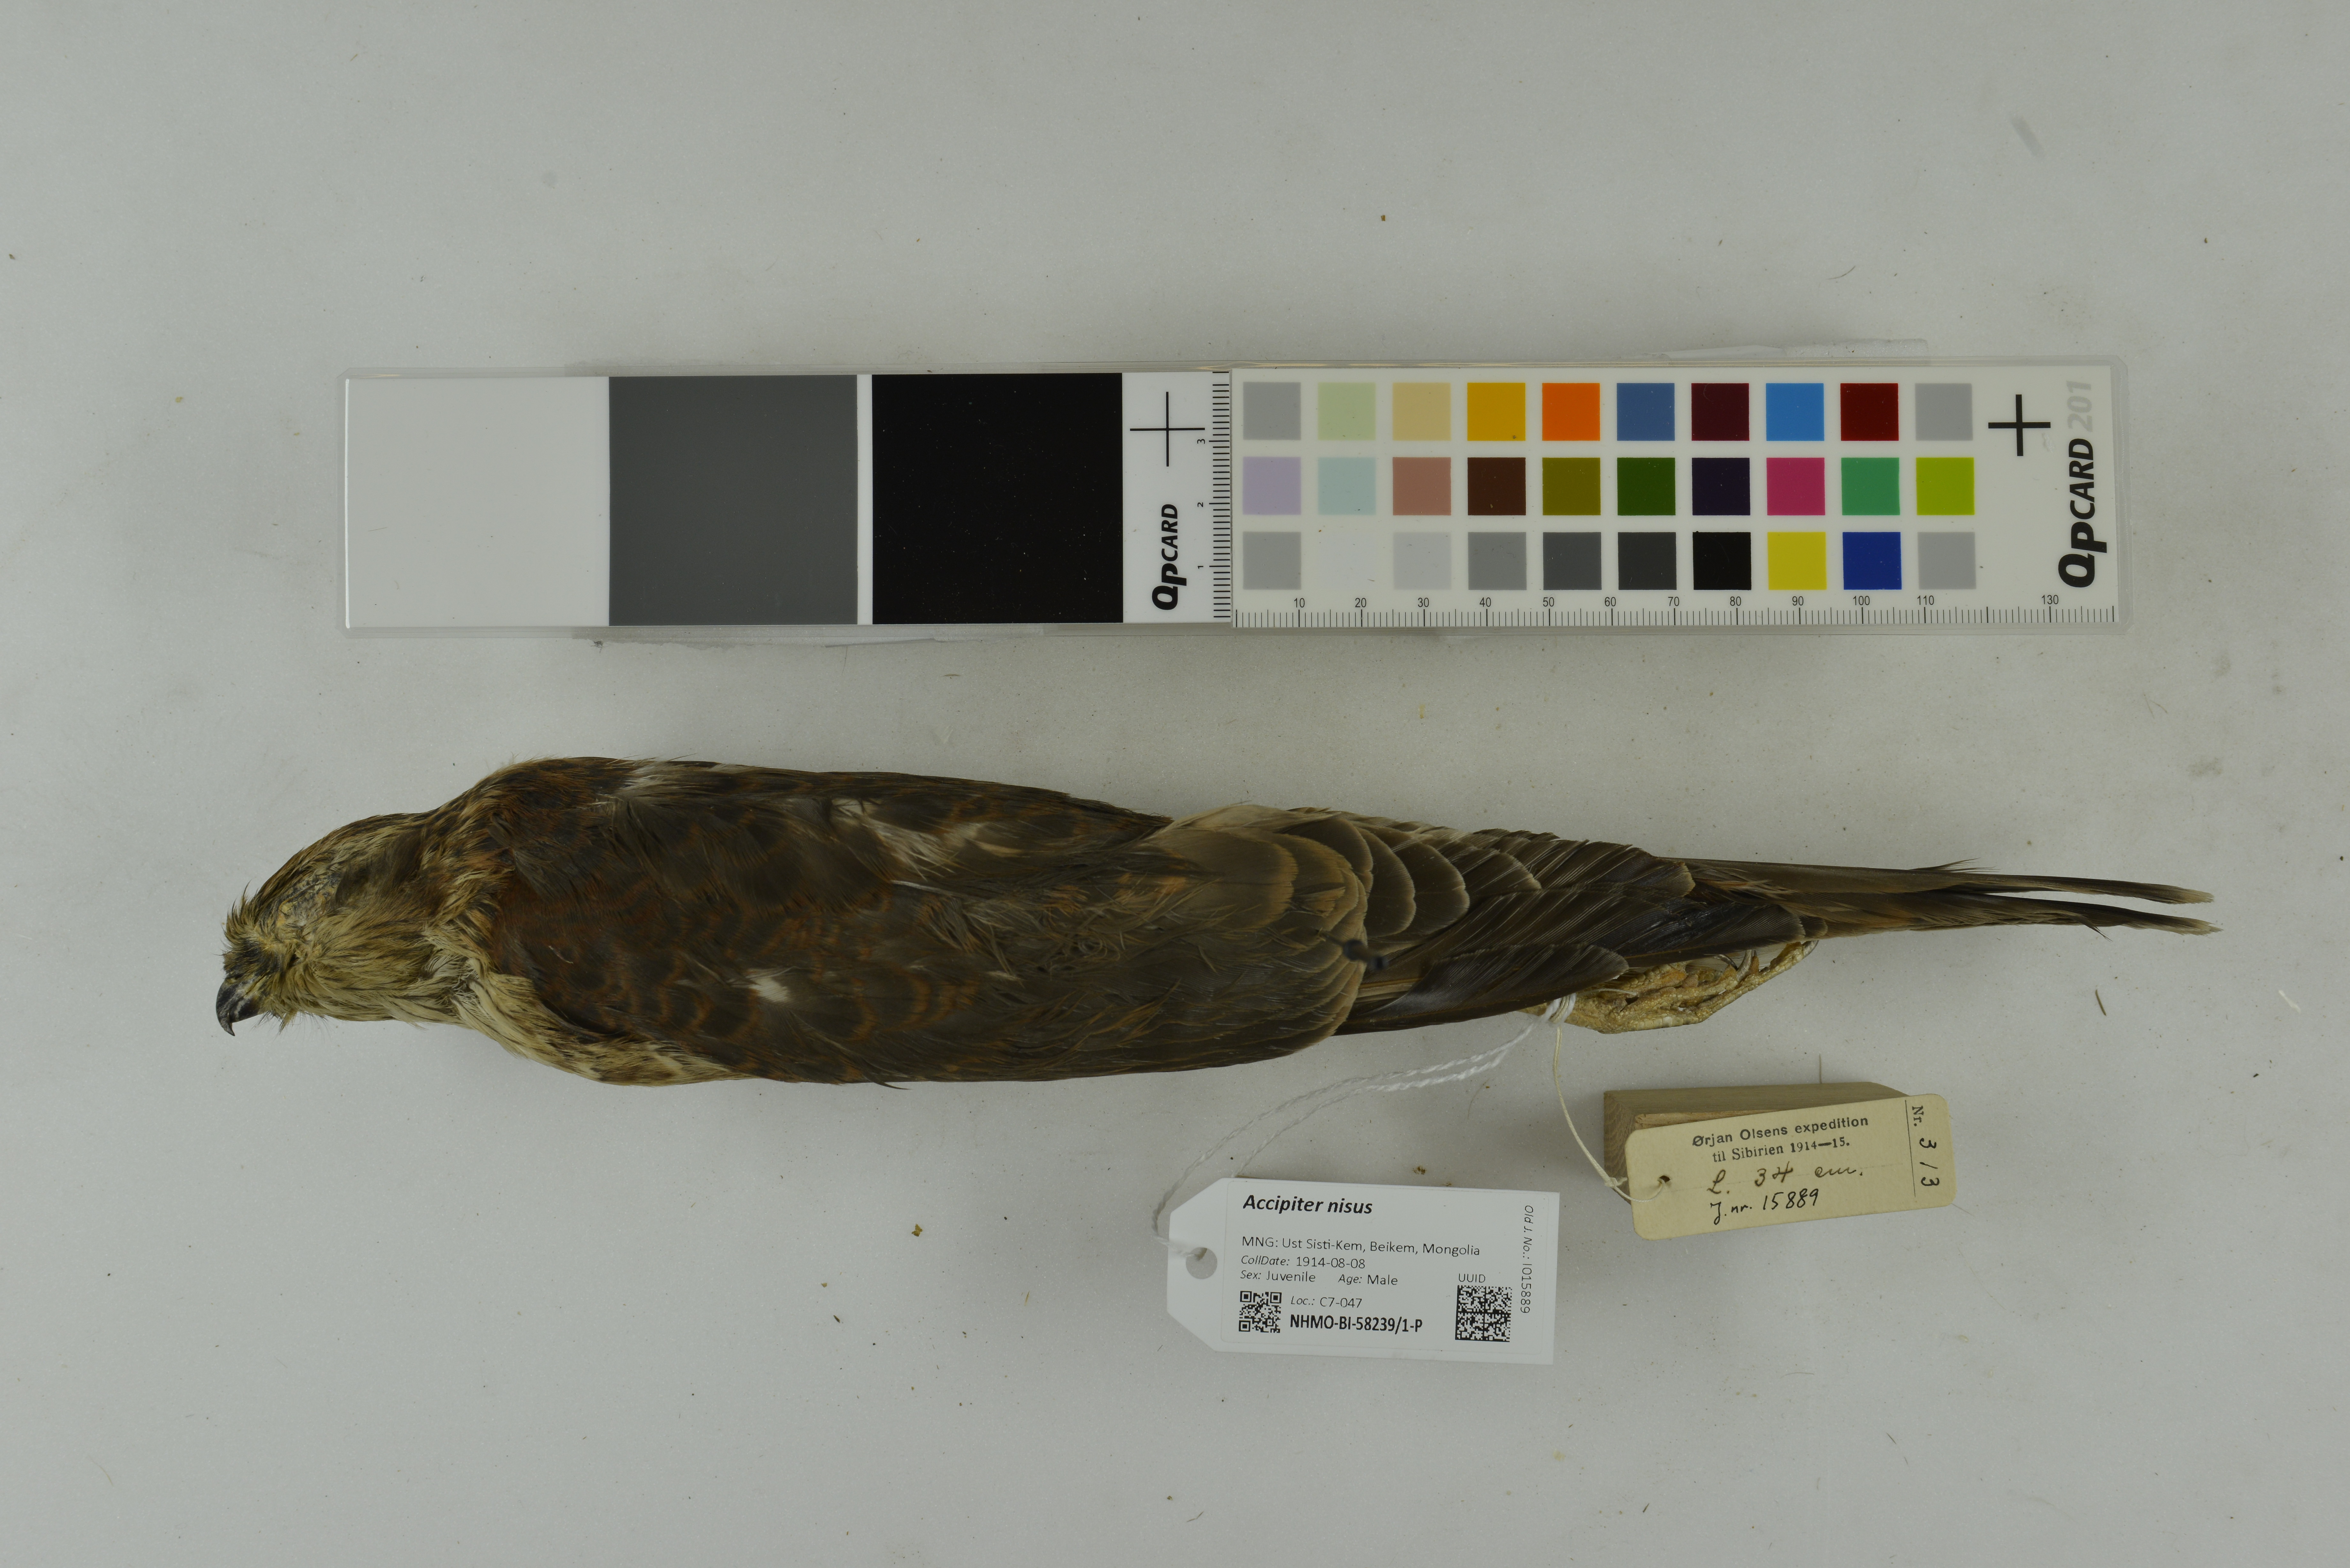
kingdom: Animalia
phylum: Chordata
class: Aves
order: Accipitriformes
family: Accipitridae
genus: Accipiter
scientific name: Accipiter nisus
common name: Eurasian sparrowhawk
